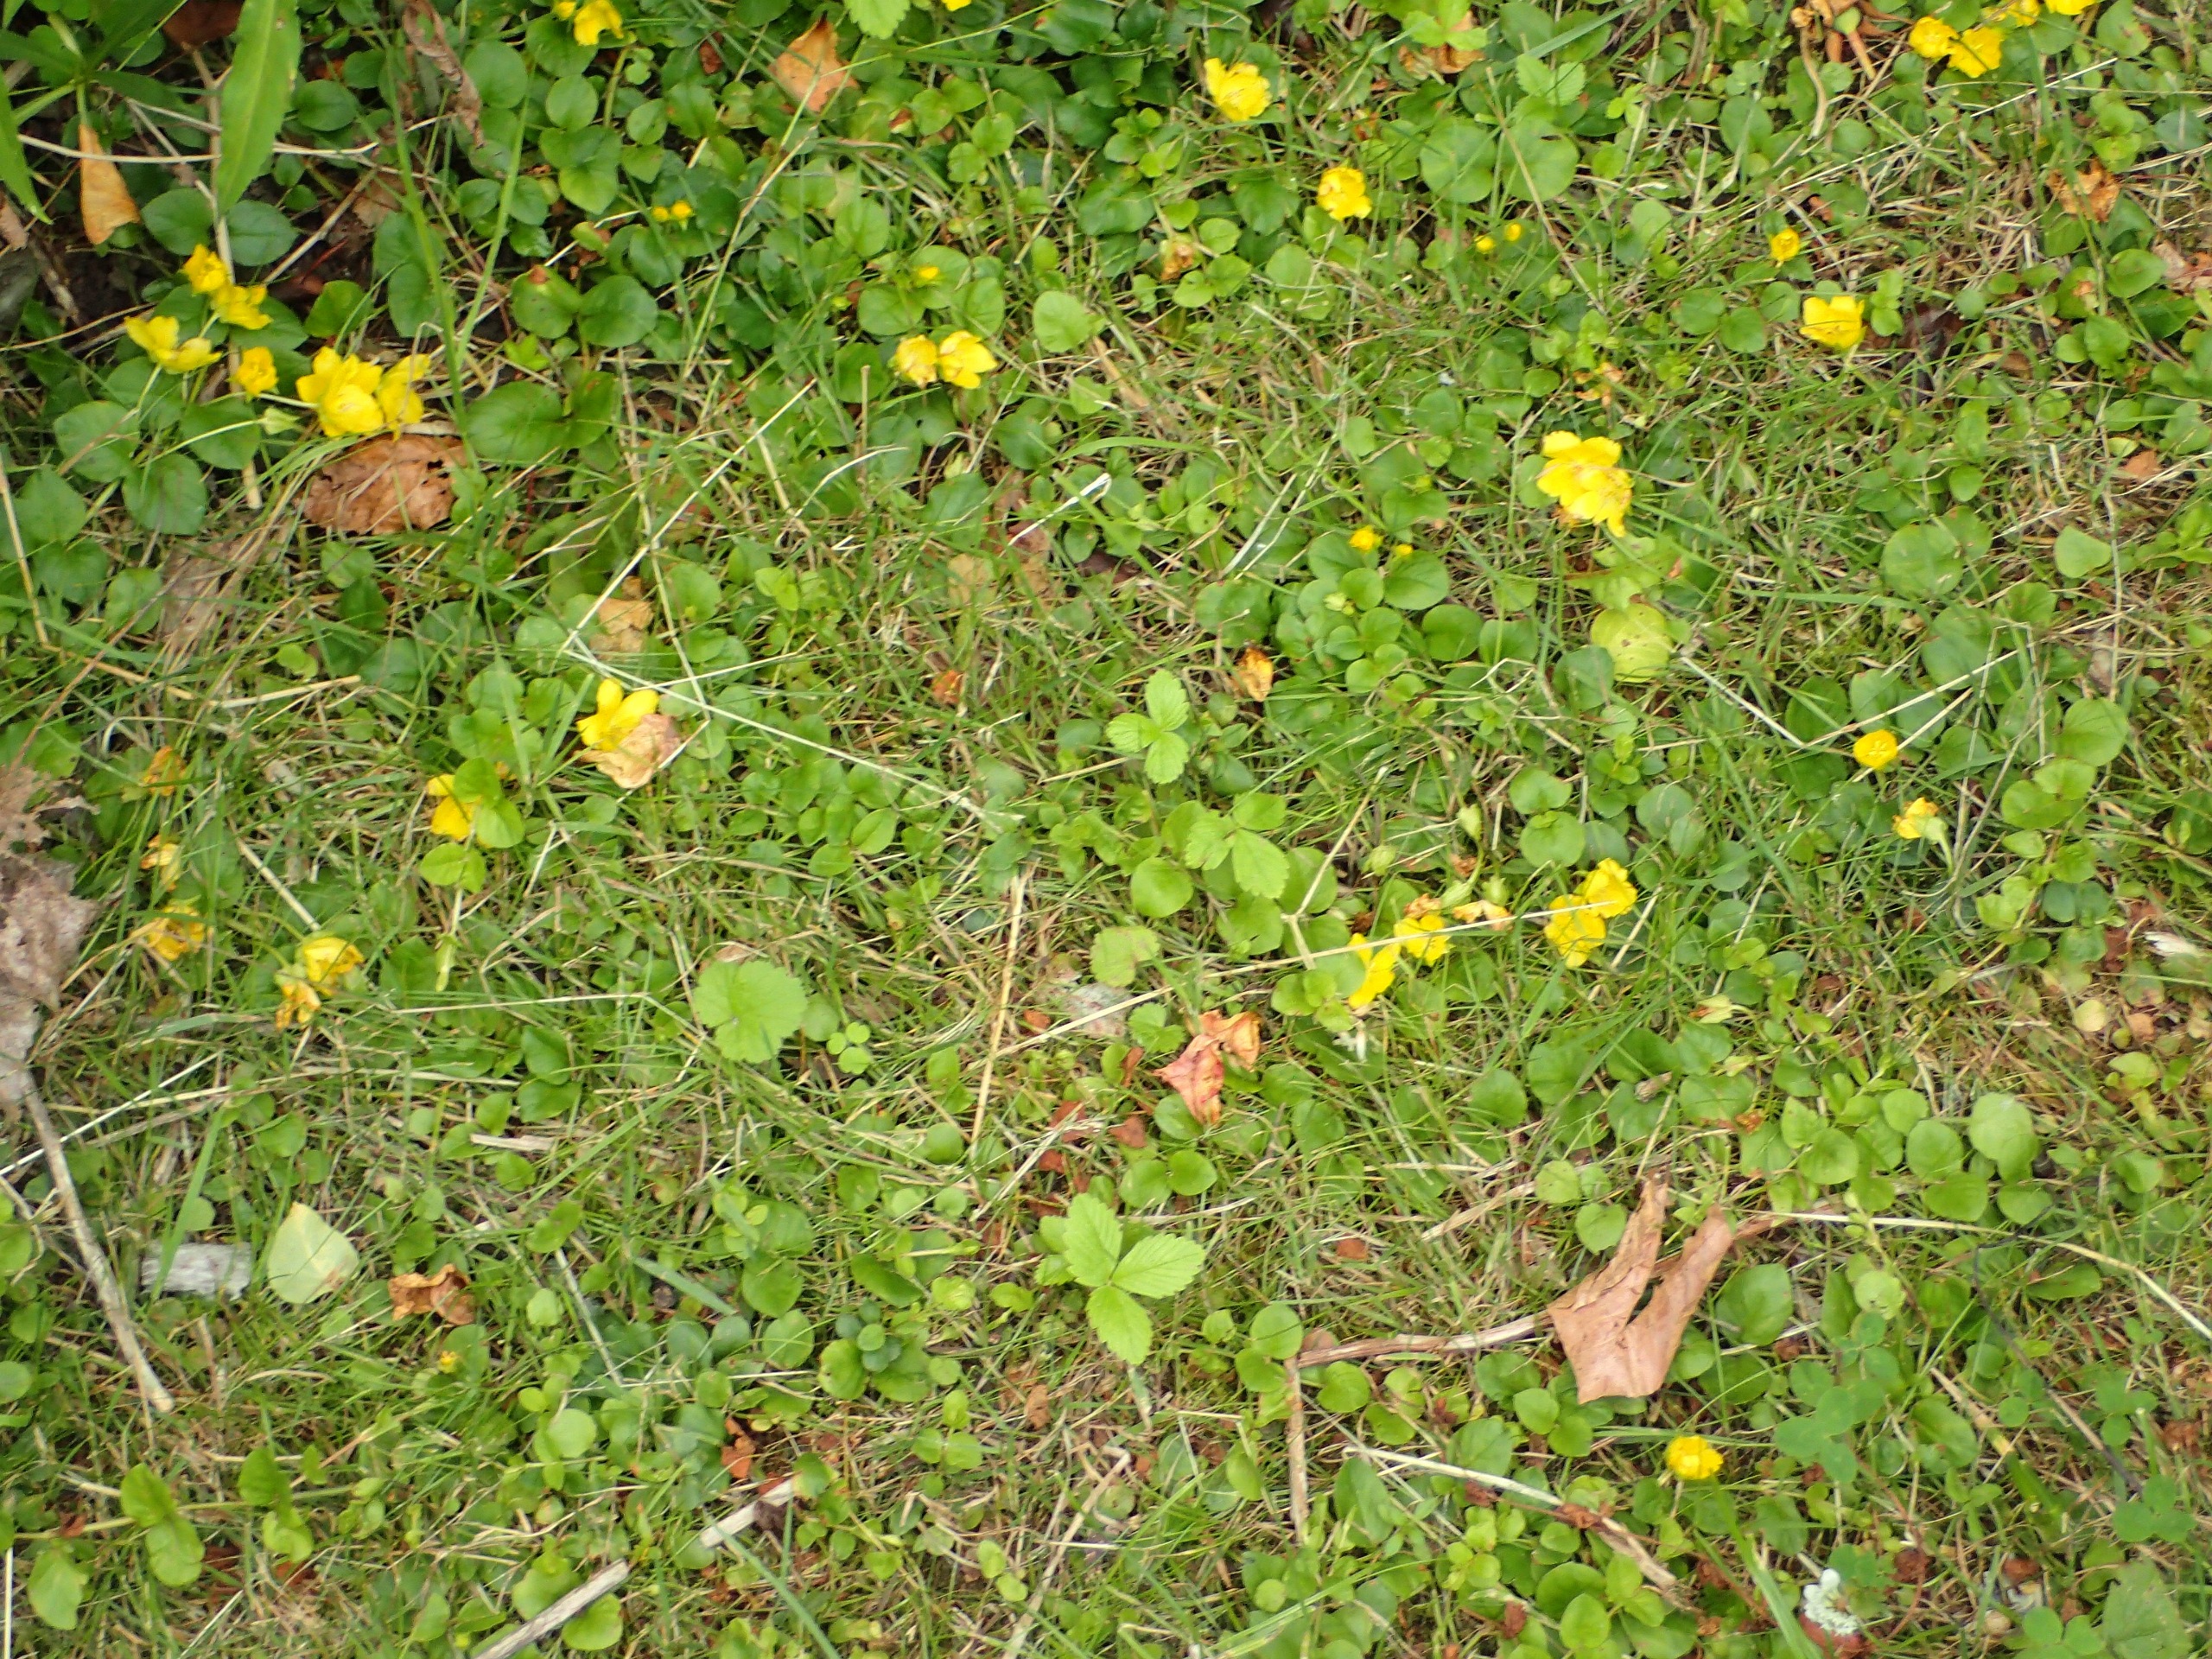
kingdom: Plantae
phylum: Tracheophyta
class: Magnoliopsida
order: Ericales
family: Primulaceae
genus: Lysimachia
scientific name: Lysimachia nummularia
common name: Pengebladet fredløs
